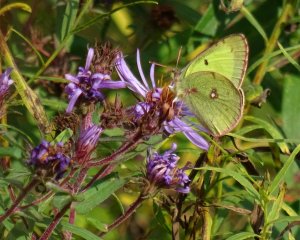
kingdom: Animalia
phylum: Arthropoda
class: Insecta
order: Lepidoptera
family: Pieridae
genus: Colias
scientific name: Colias philodice
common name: Clouded Sulphur
